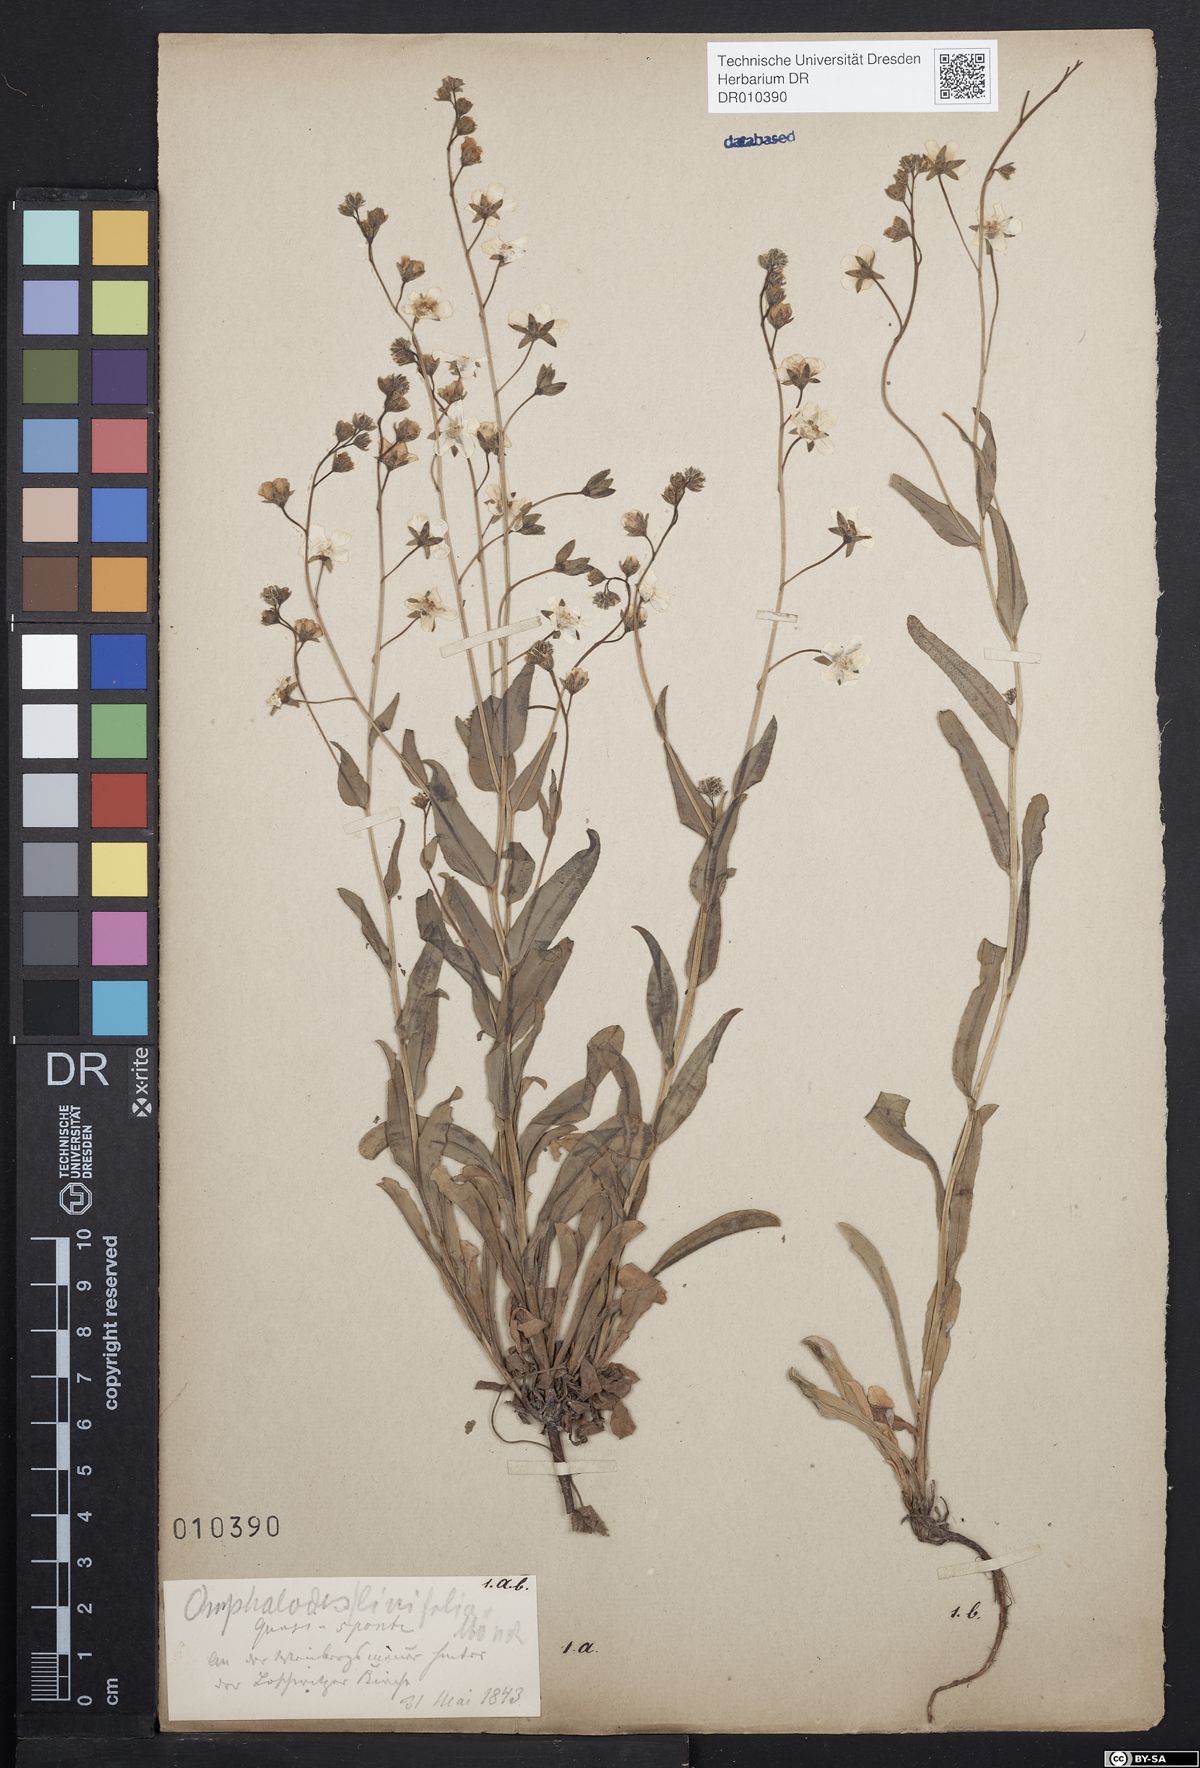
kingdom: Plantae
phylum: Tracheophyta
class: Magnoliopsida
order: Boraginales
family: Boraginaceae
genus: Iberodes
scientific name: Iberodes linifolia
